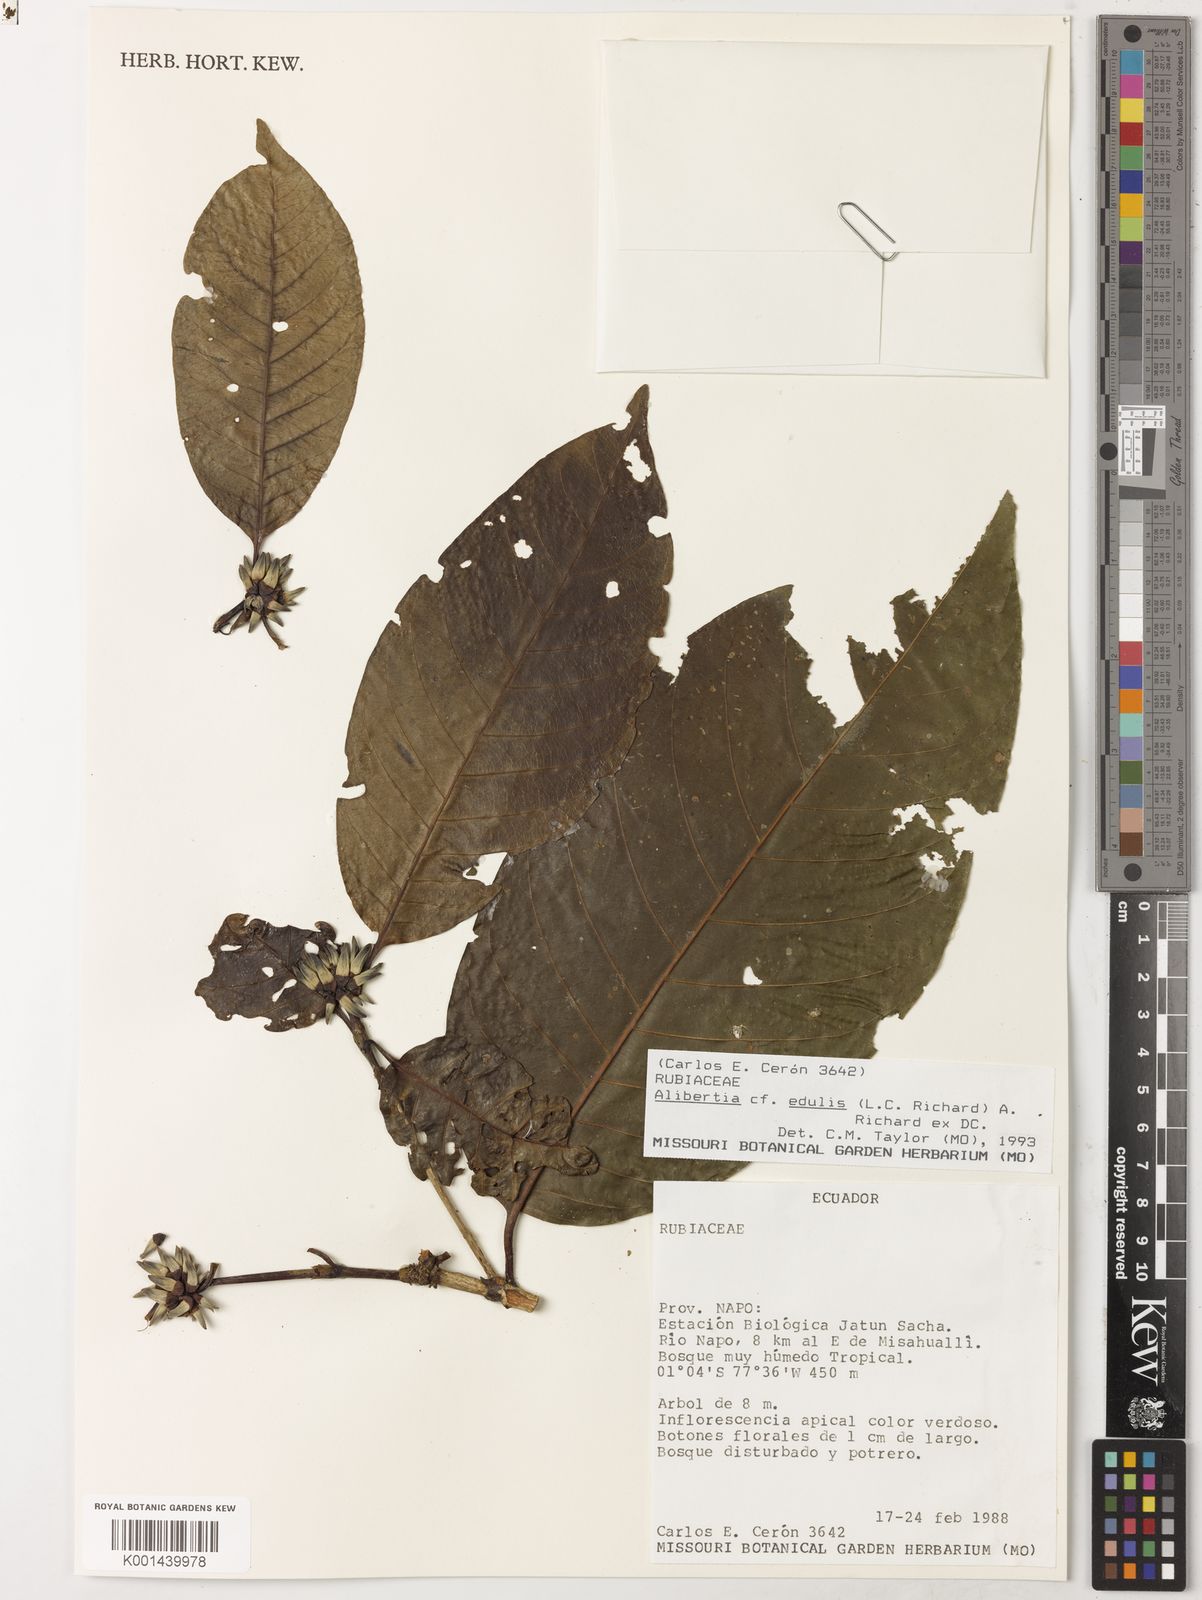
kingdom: Plantae
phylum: Tracheophyta
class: Magnoliopsida
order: Gentianales
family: Rubiaceae
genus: Alibertia
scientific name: Alibertia edulis
